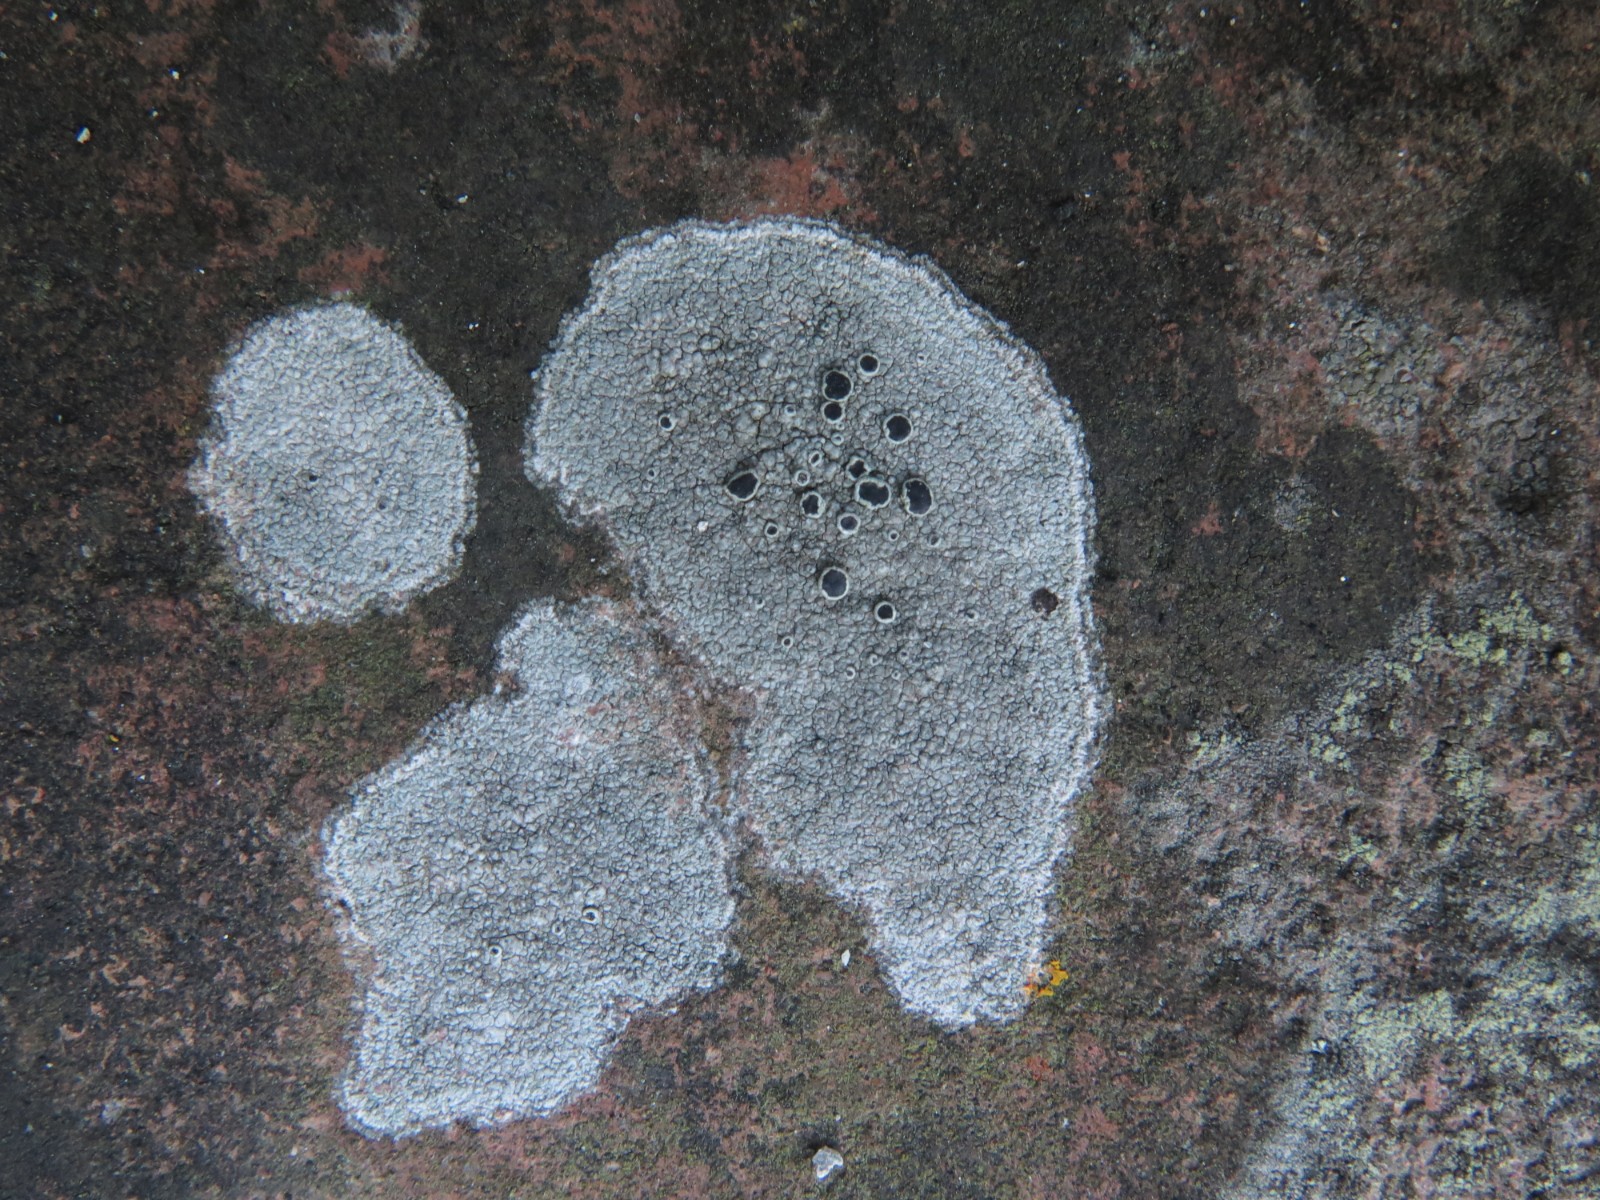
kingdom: Fungi
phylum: Ascomycota
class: Lecanoromycetes
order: Lecanorales
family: Tephromelataceae
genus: Tephromela
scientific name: Tephromela atra
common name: sortfrugtet kantskivelav
